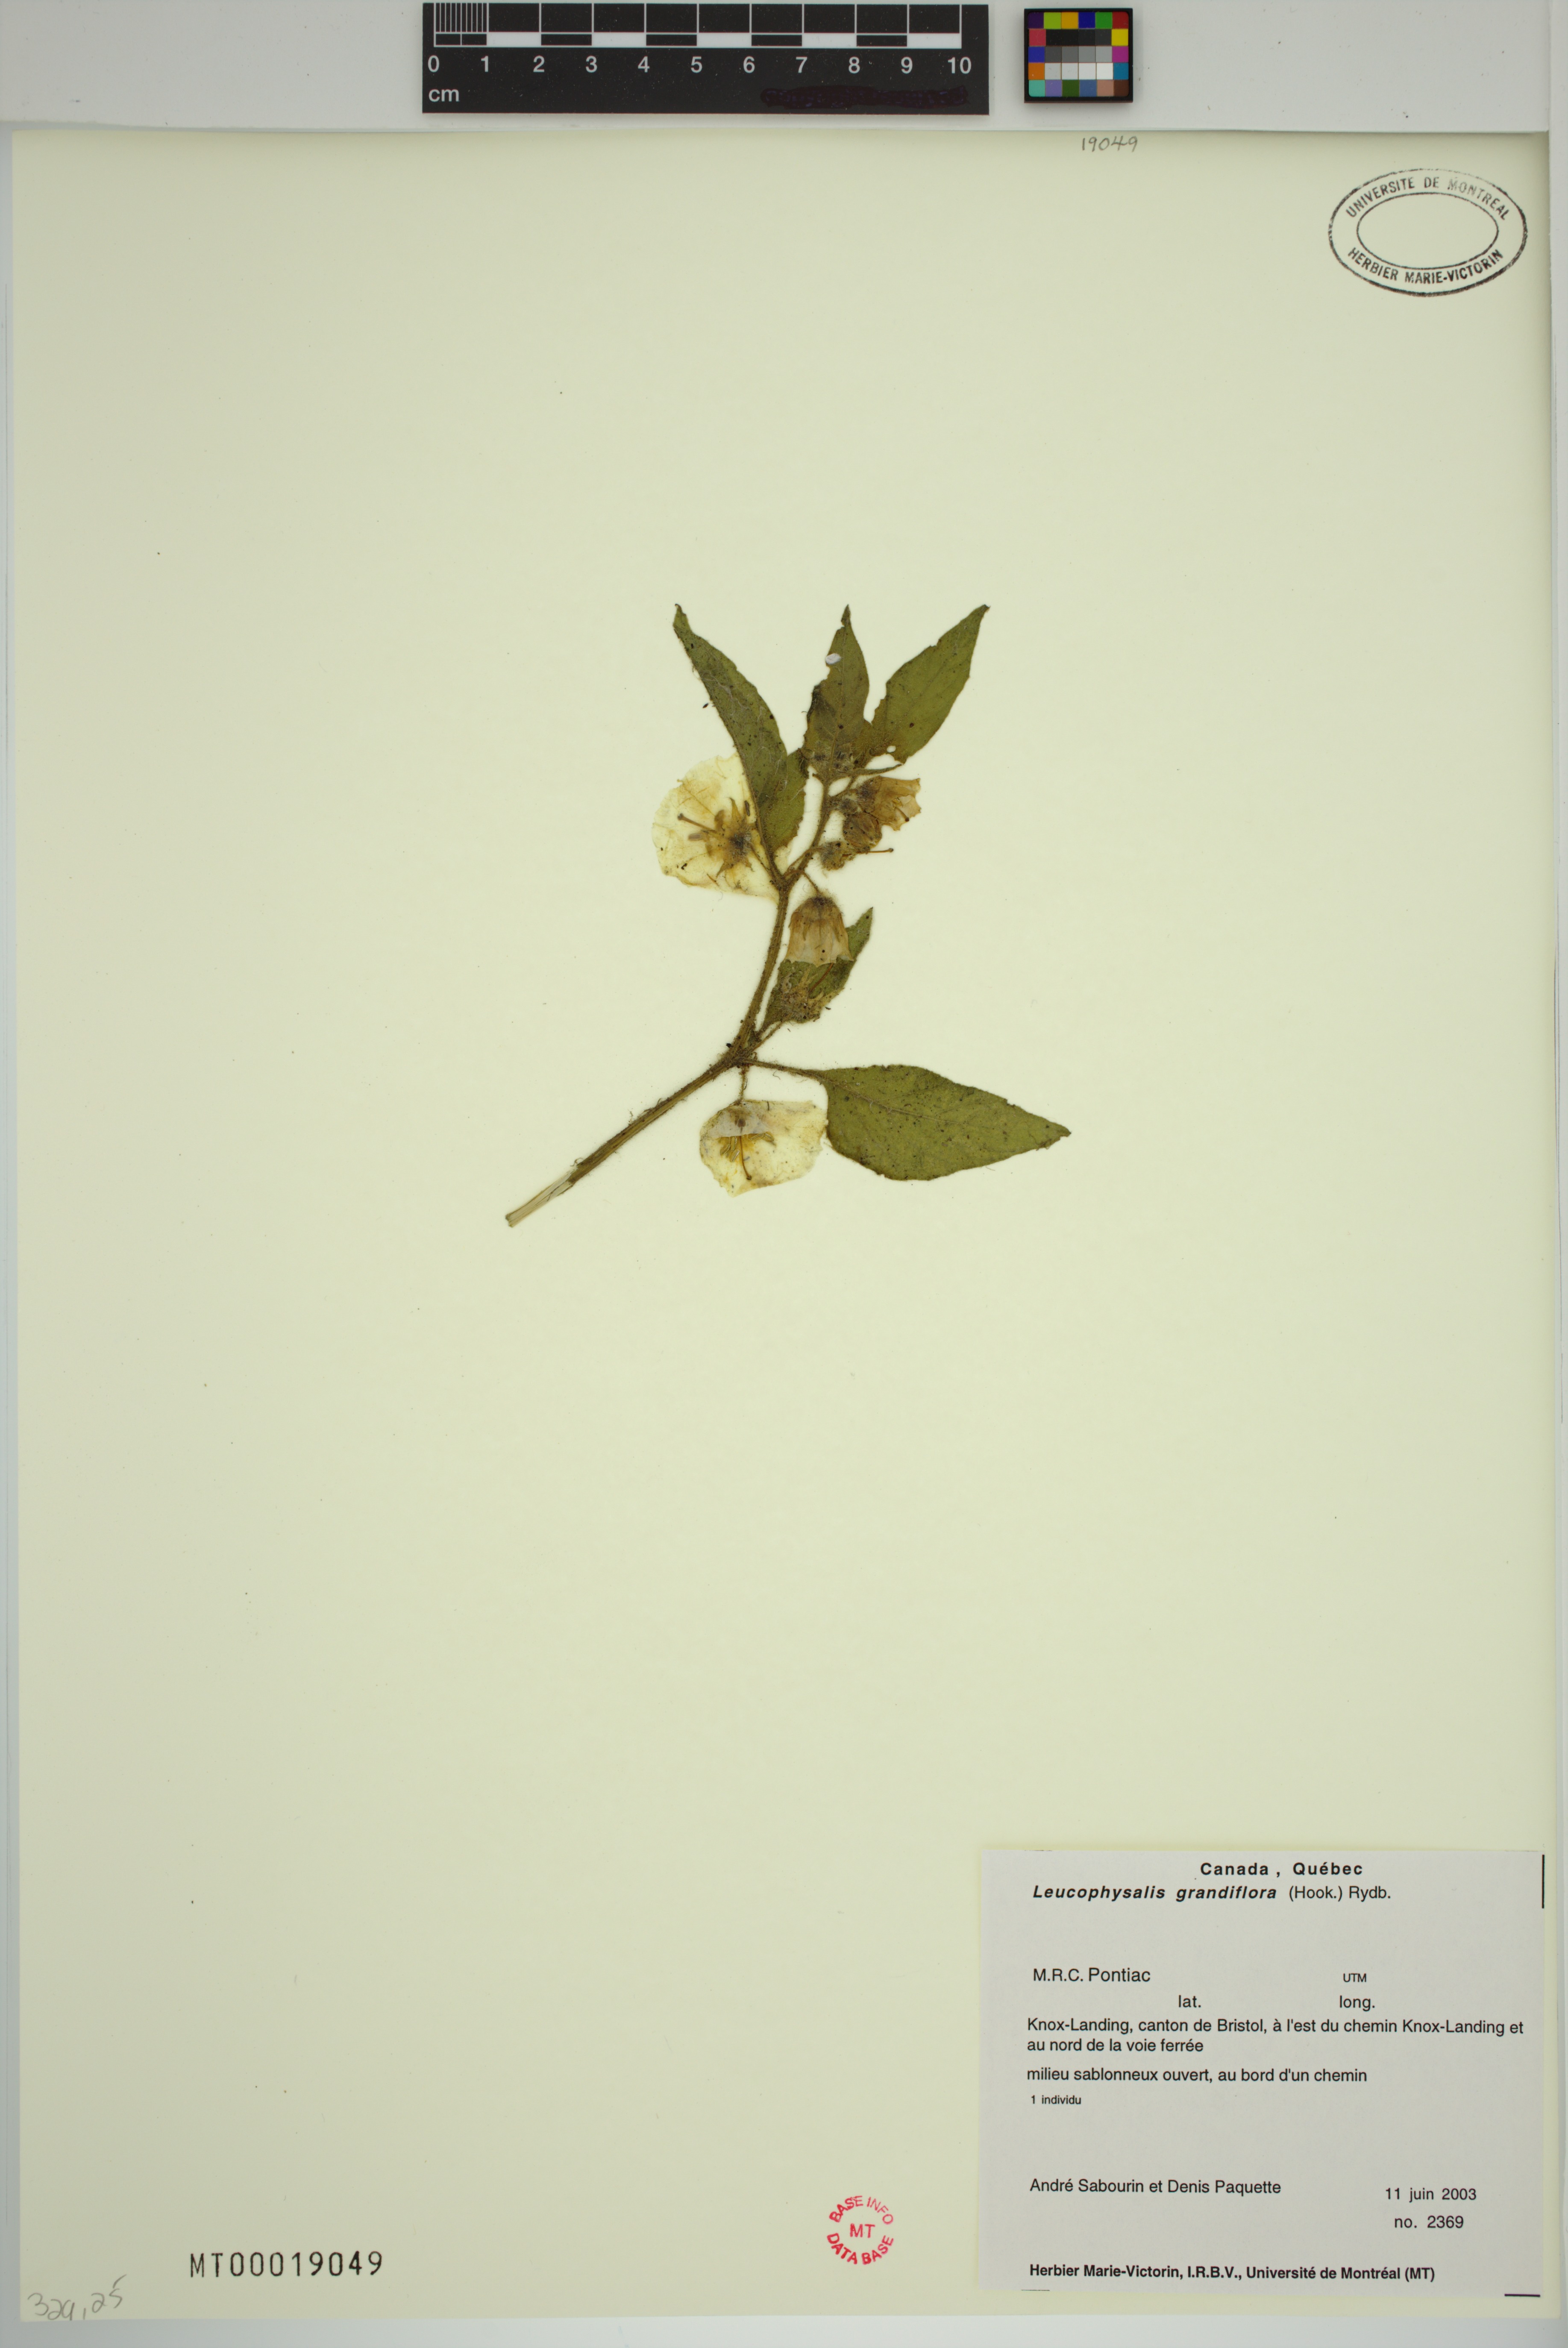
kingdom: Plantae
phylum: Tracheophyta
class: Magnoliopsida
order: Solanales
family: Solanaceae
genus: Leucophysalis
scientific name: Leucophysalis grandiflora
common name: Large false ground-cherry
